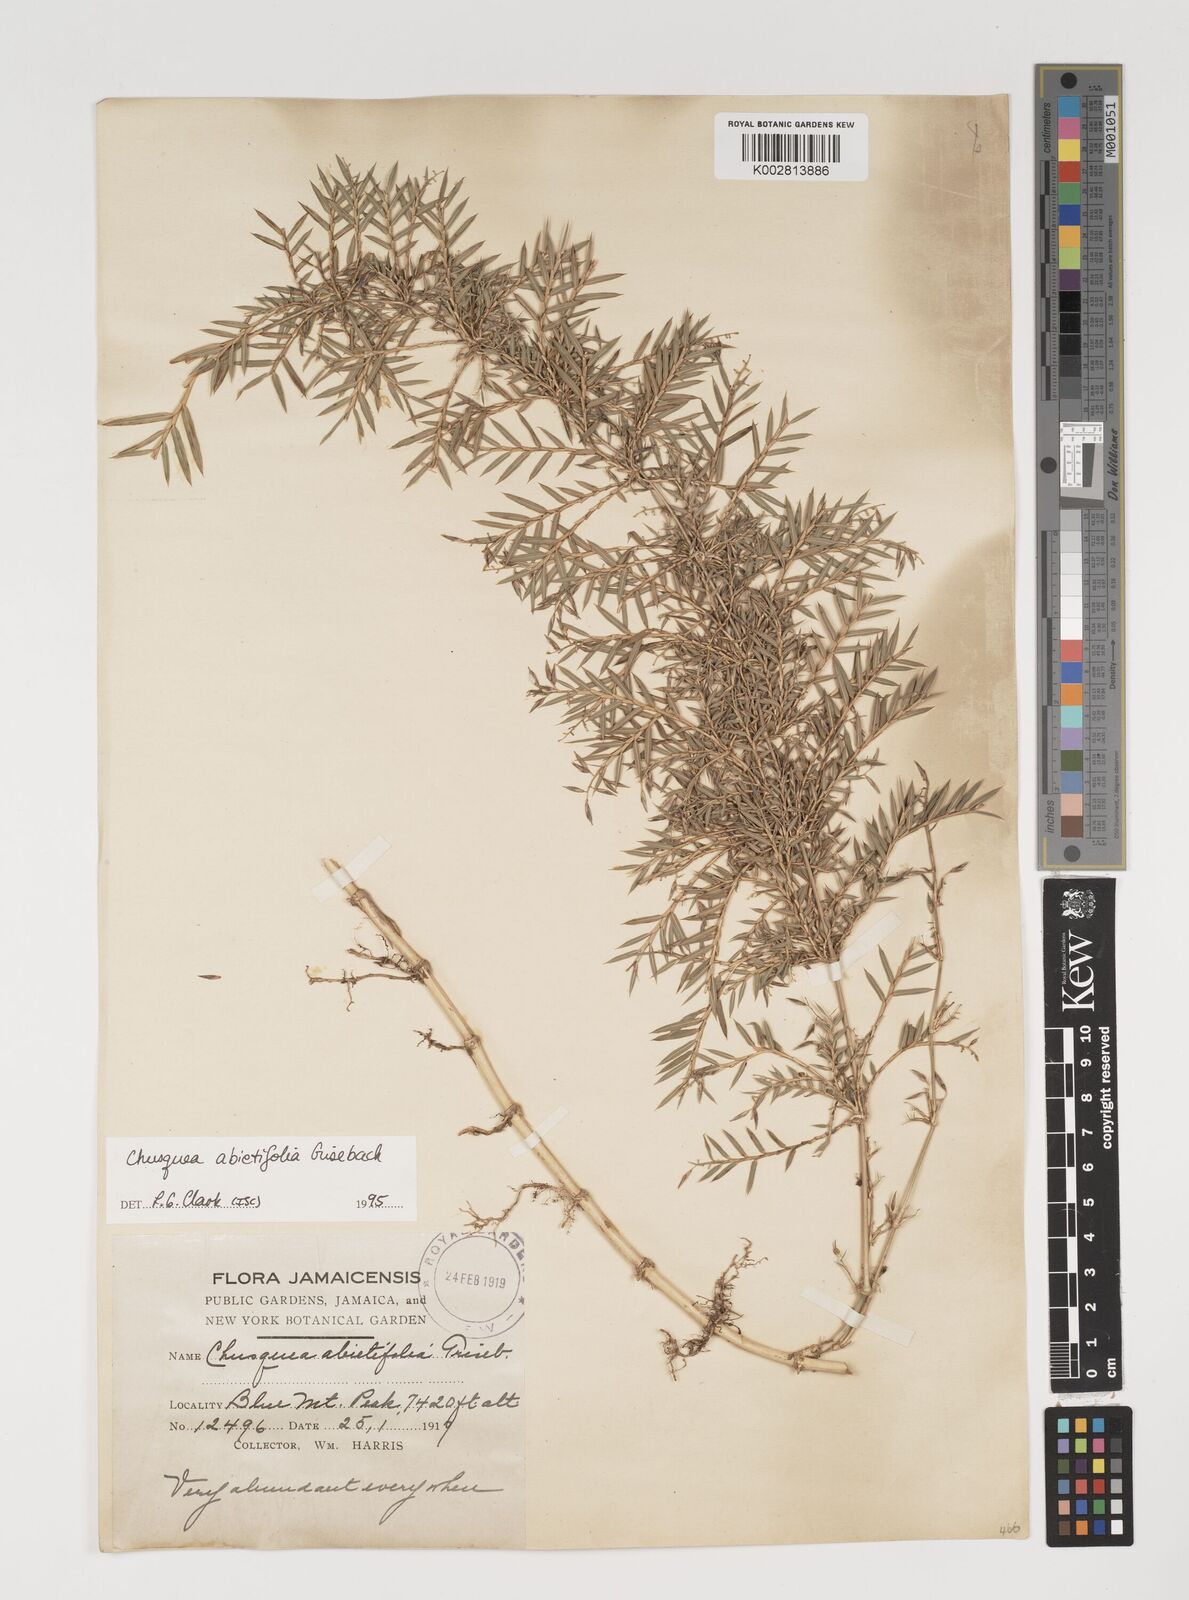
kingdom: Plantae
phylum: Tracheophyta
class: Liliopsida
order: Poales
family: Poaceae
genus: Chusquea
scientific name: Chusquea abietifolia
